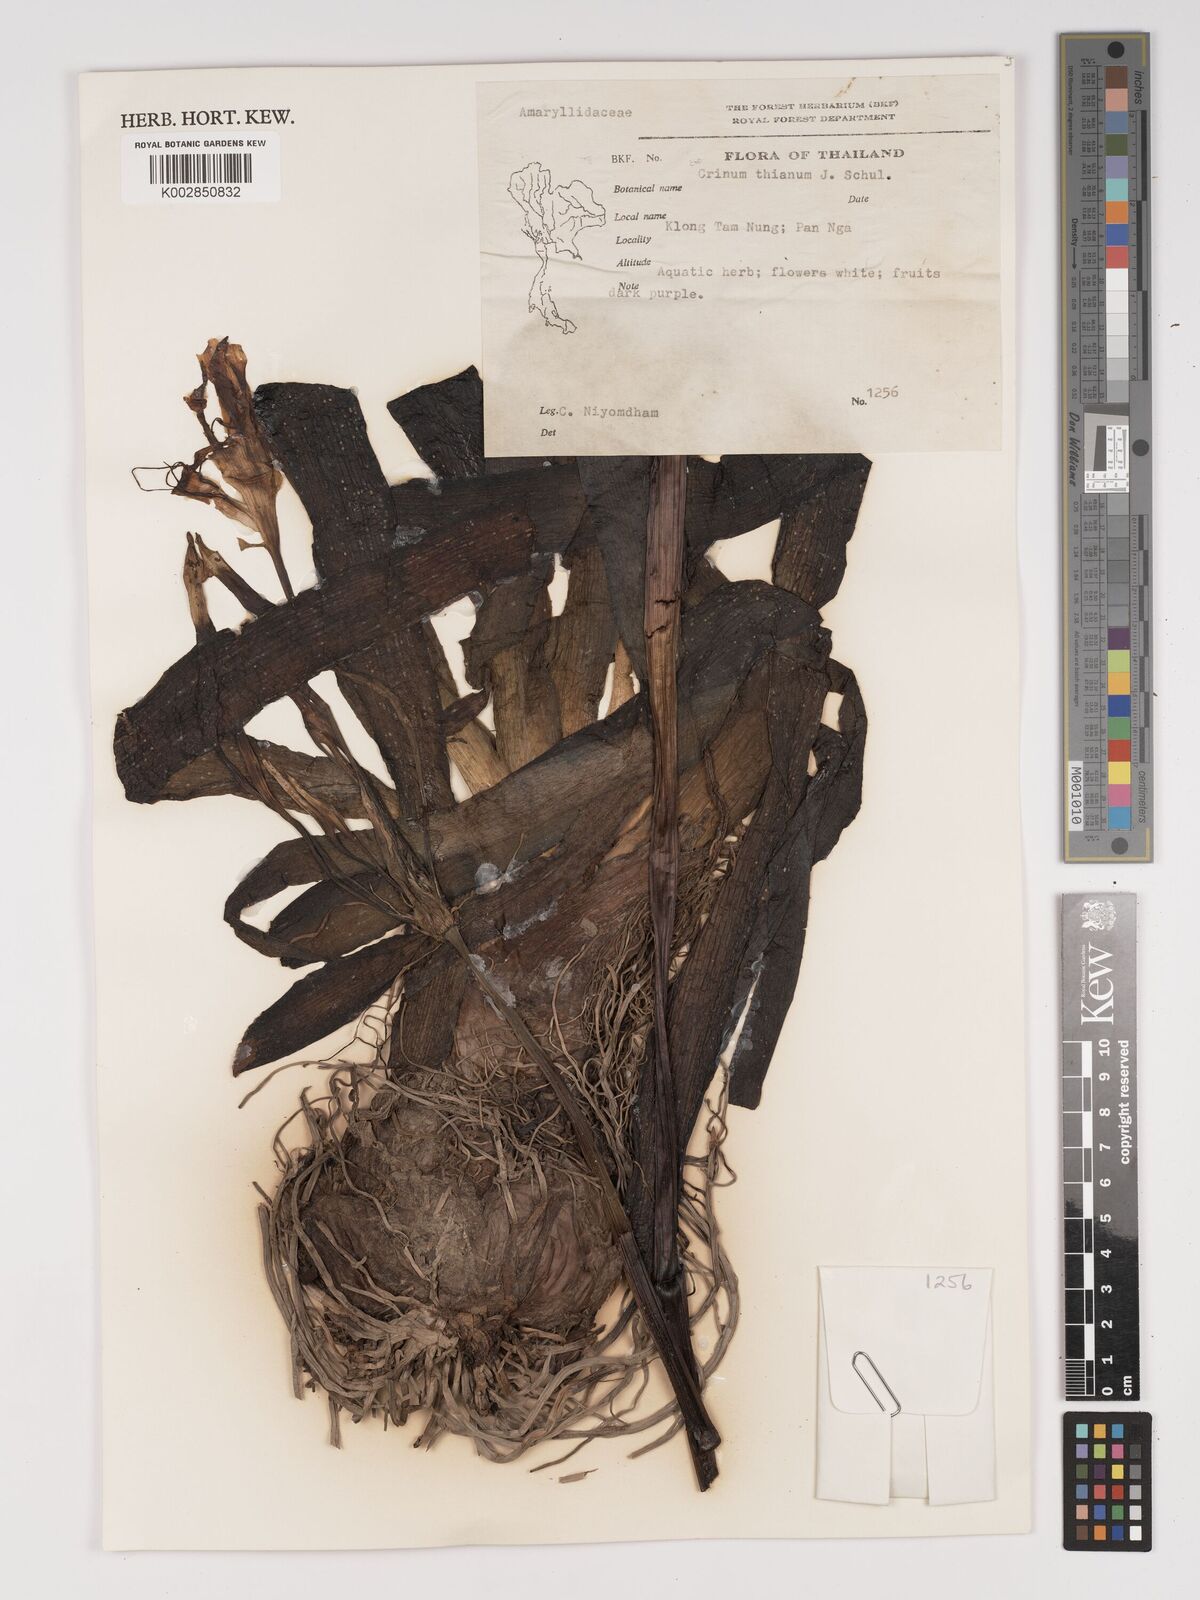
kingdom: Plantae
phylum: Tracheophyta
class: Liliopsida
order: Asparagales
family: Amaryllidaceae
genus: Crinum
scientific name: Crinum
